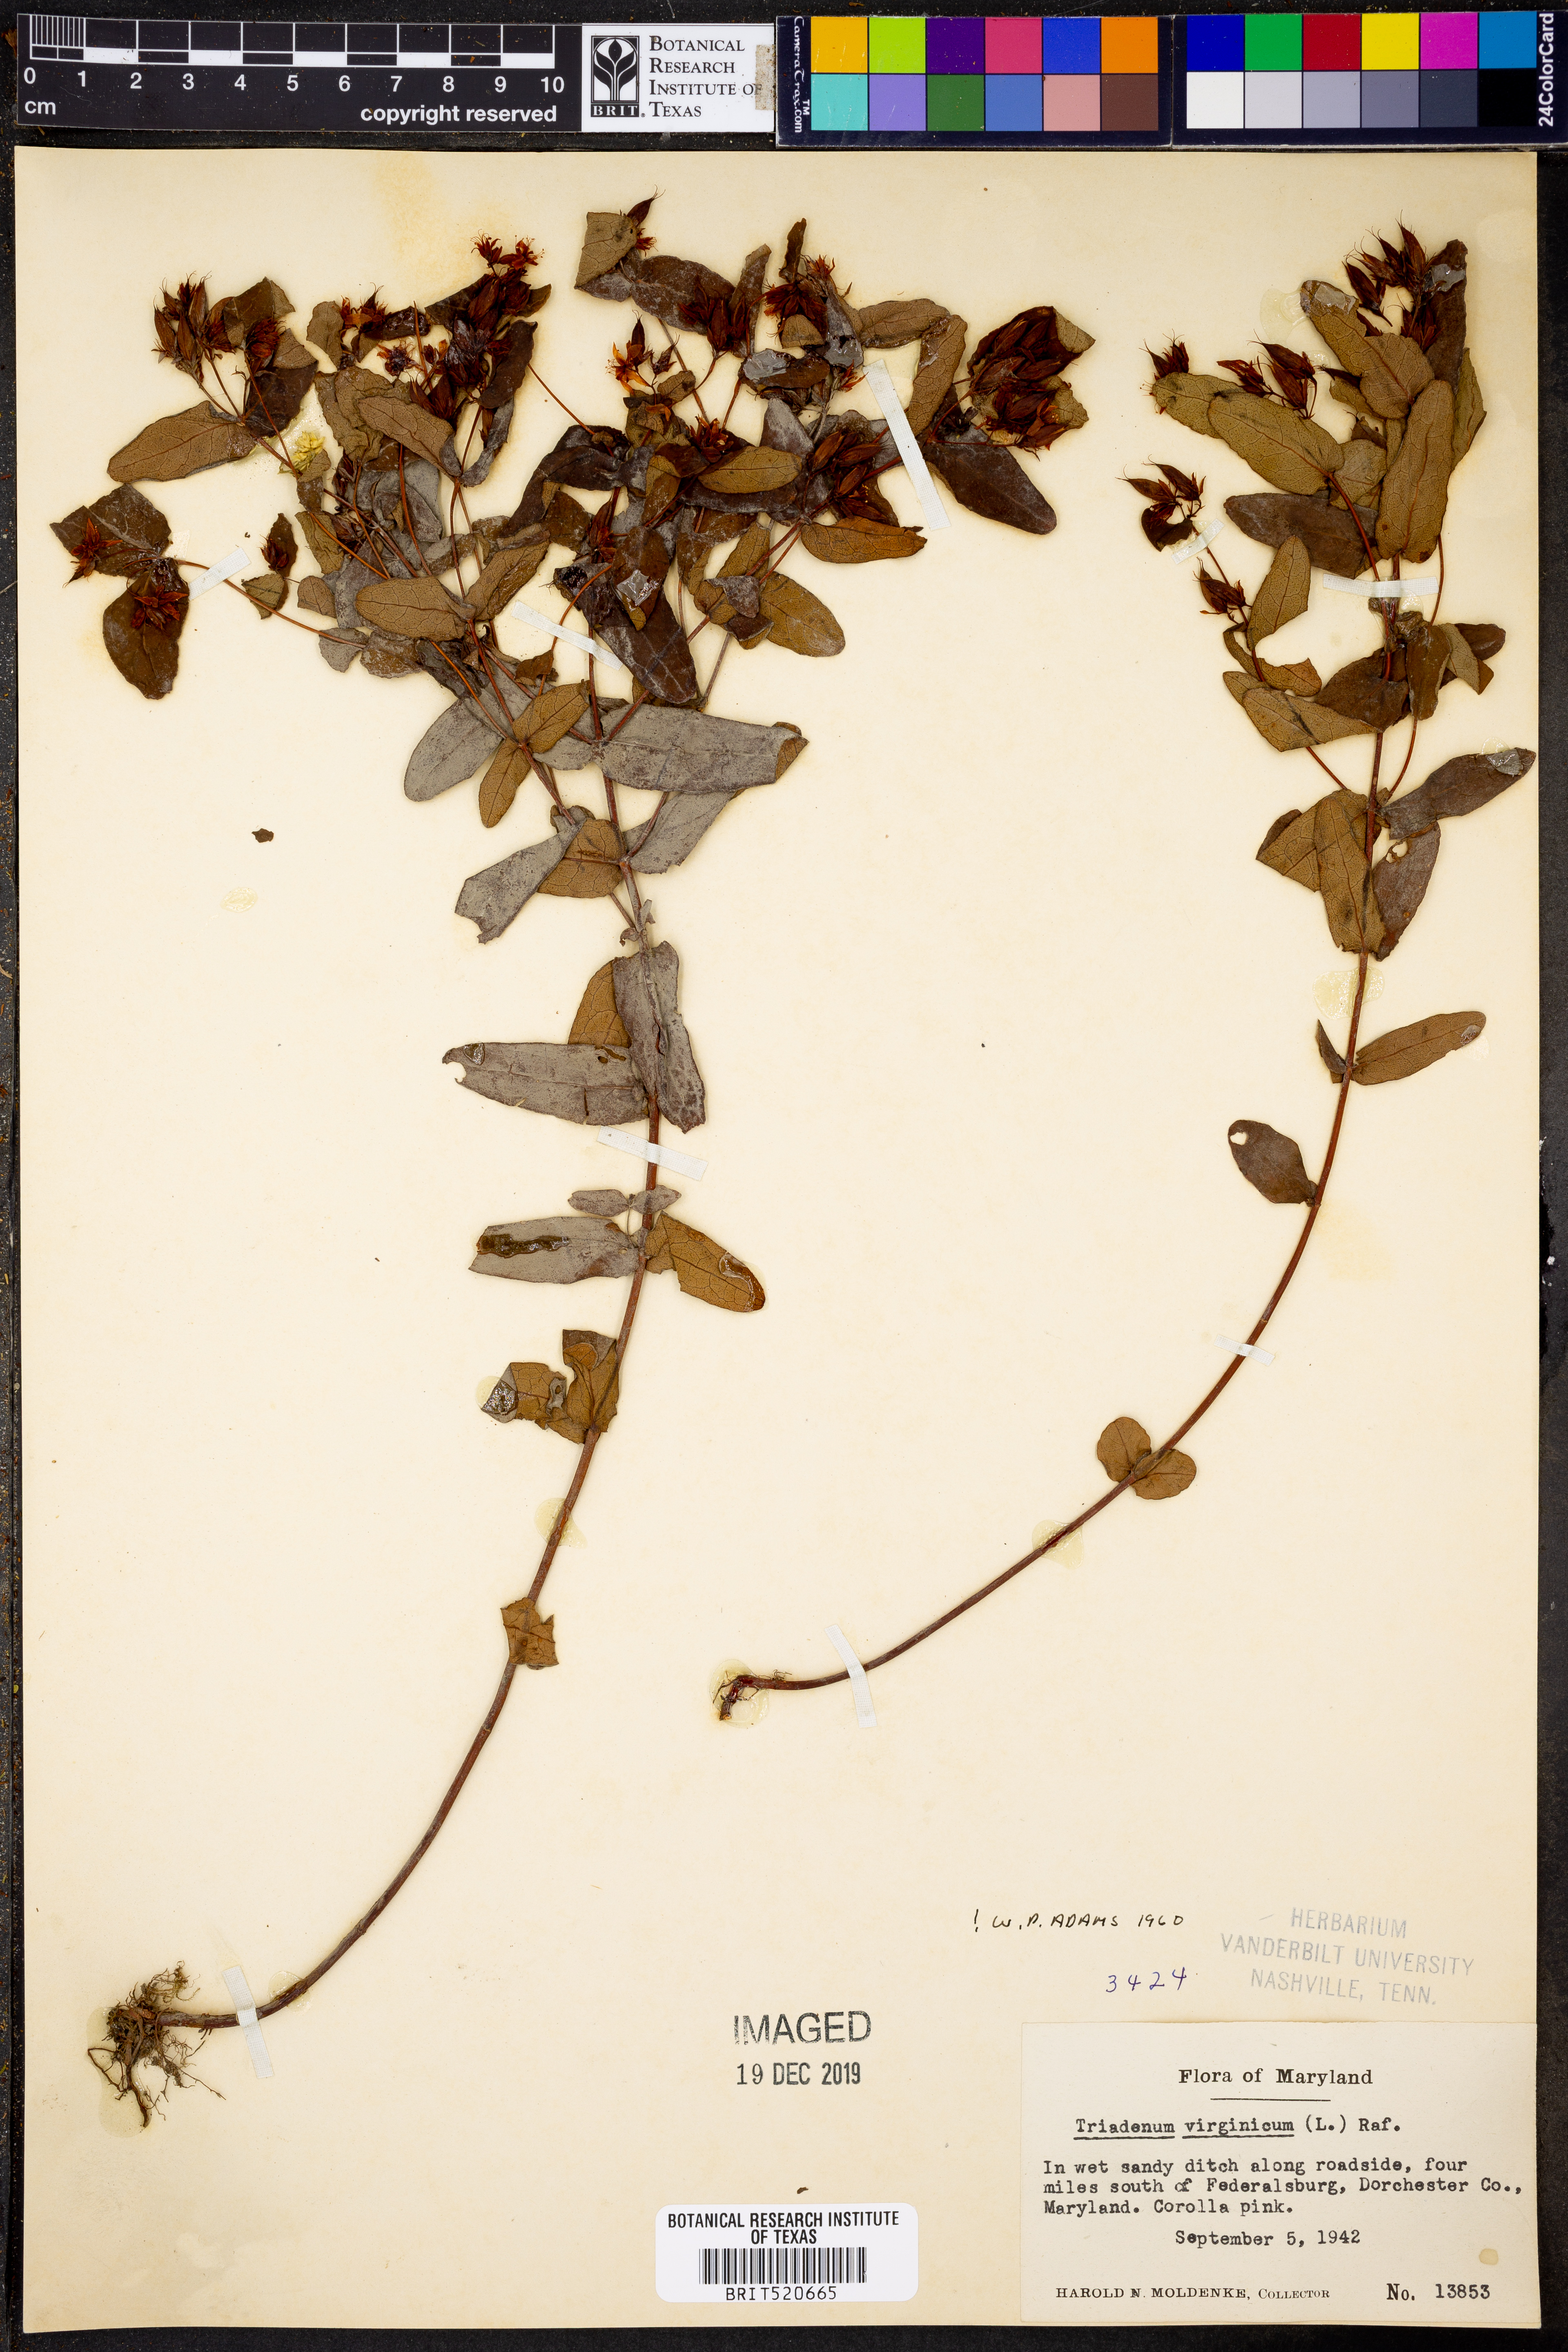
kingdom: Plantae
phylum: Tracheophyta
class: Magnoliopsida
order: Malpighiales
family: Hypericaceae
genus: Triadenum
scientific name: Triadenum virginicum
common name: Marsh st. john's-wort
